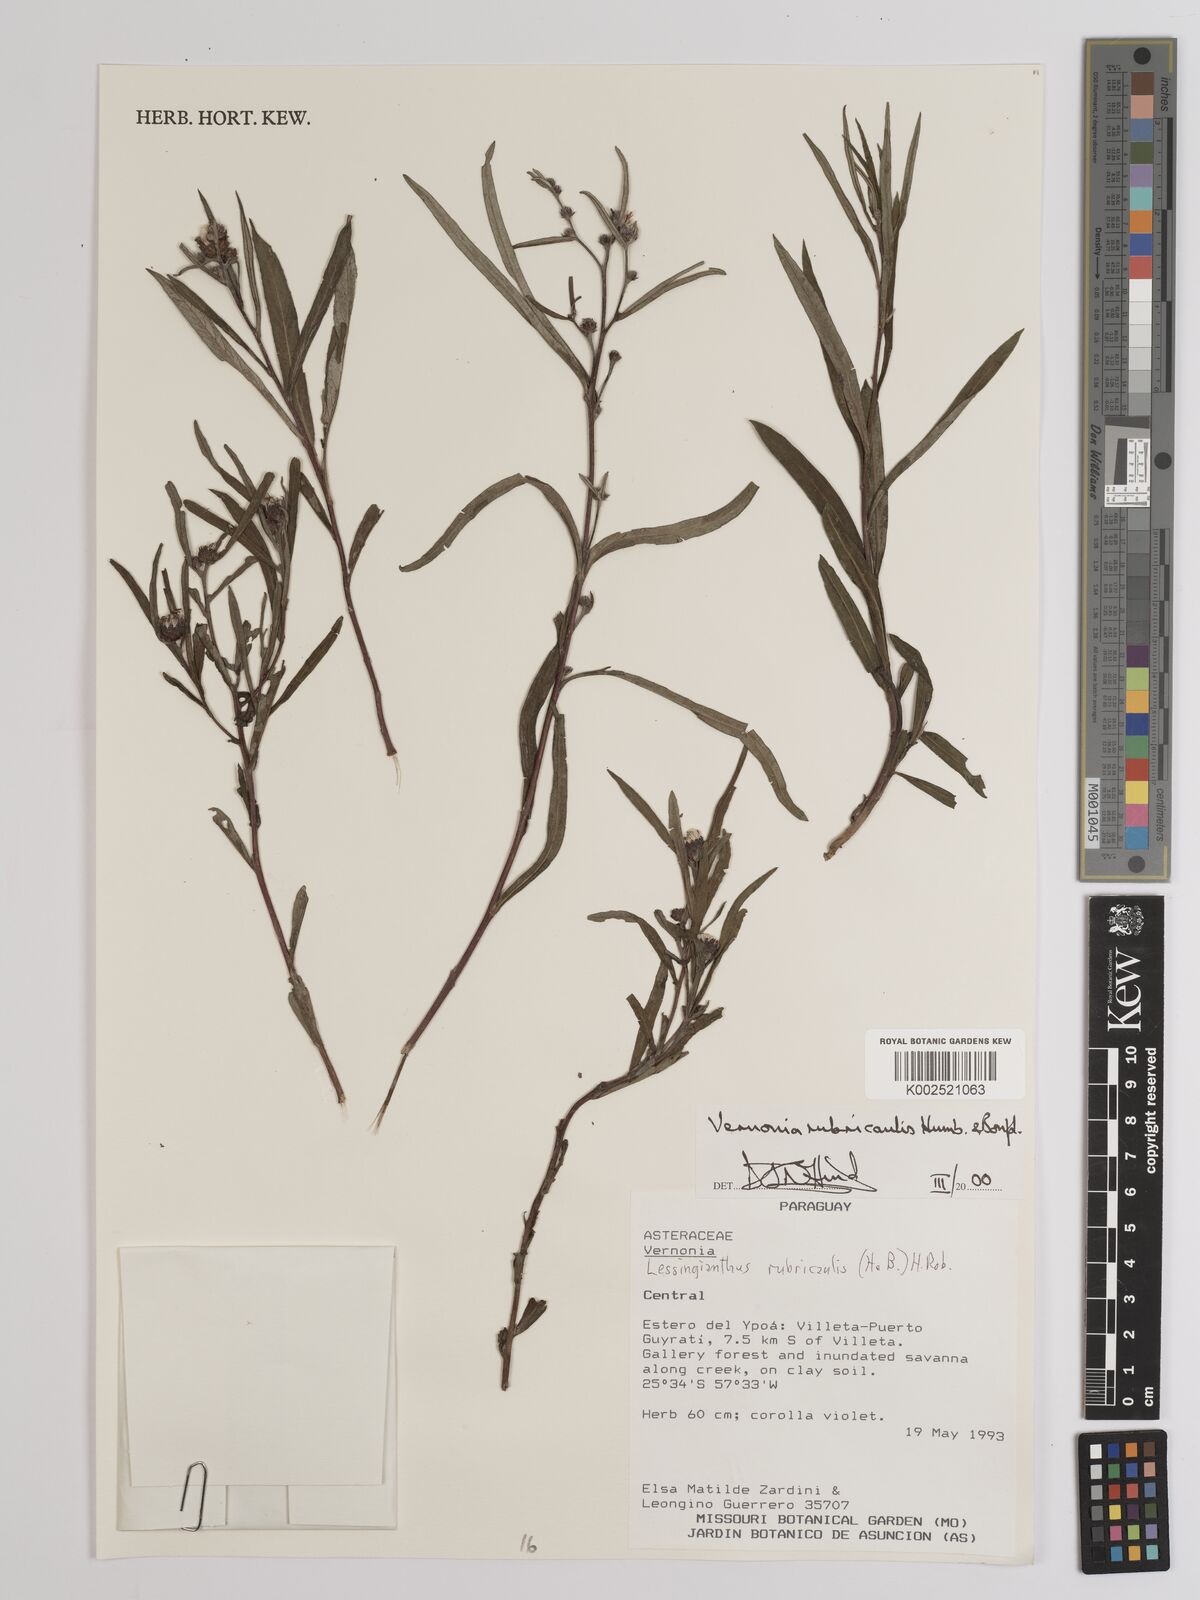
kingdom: Plantae
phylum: Tracheophyta
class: Magnoliopsida
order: Asterales
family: Asteraceae
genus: Lessingianthus
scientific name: Lessingianthus rubricaulis
